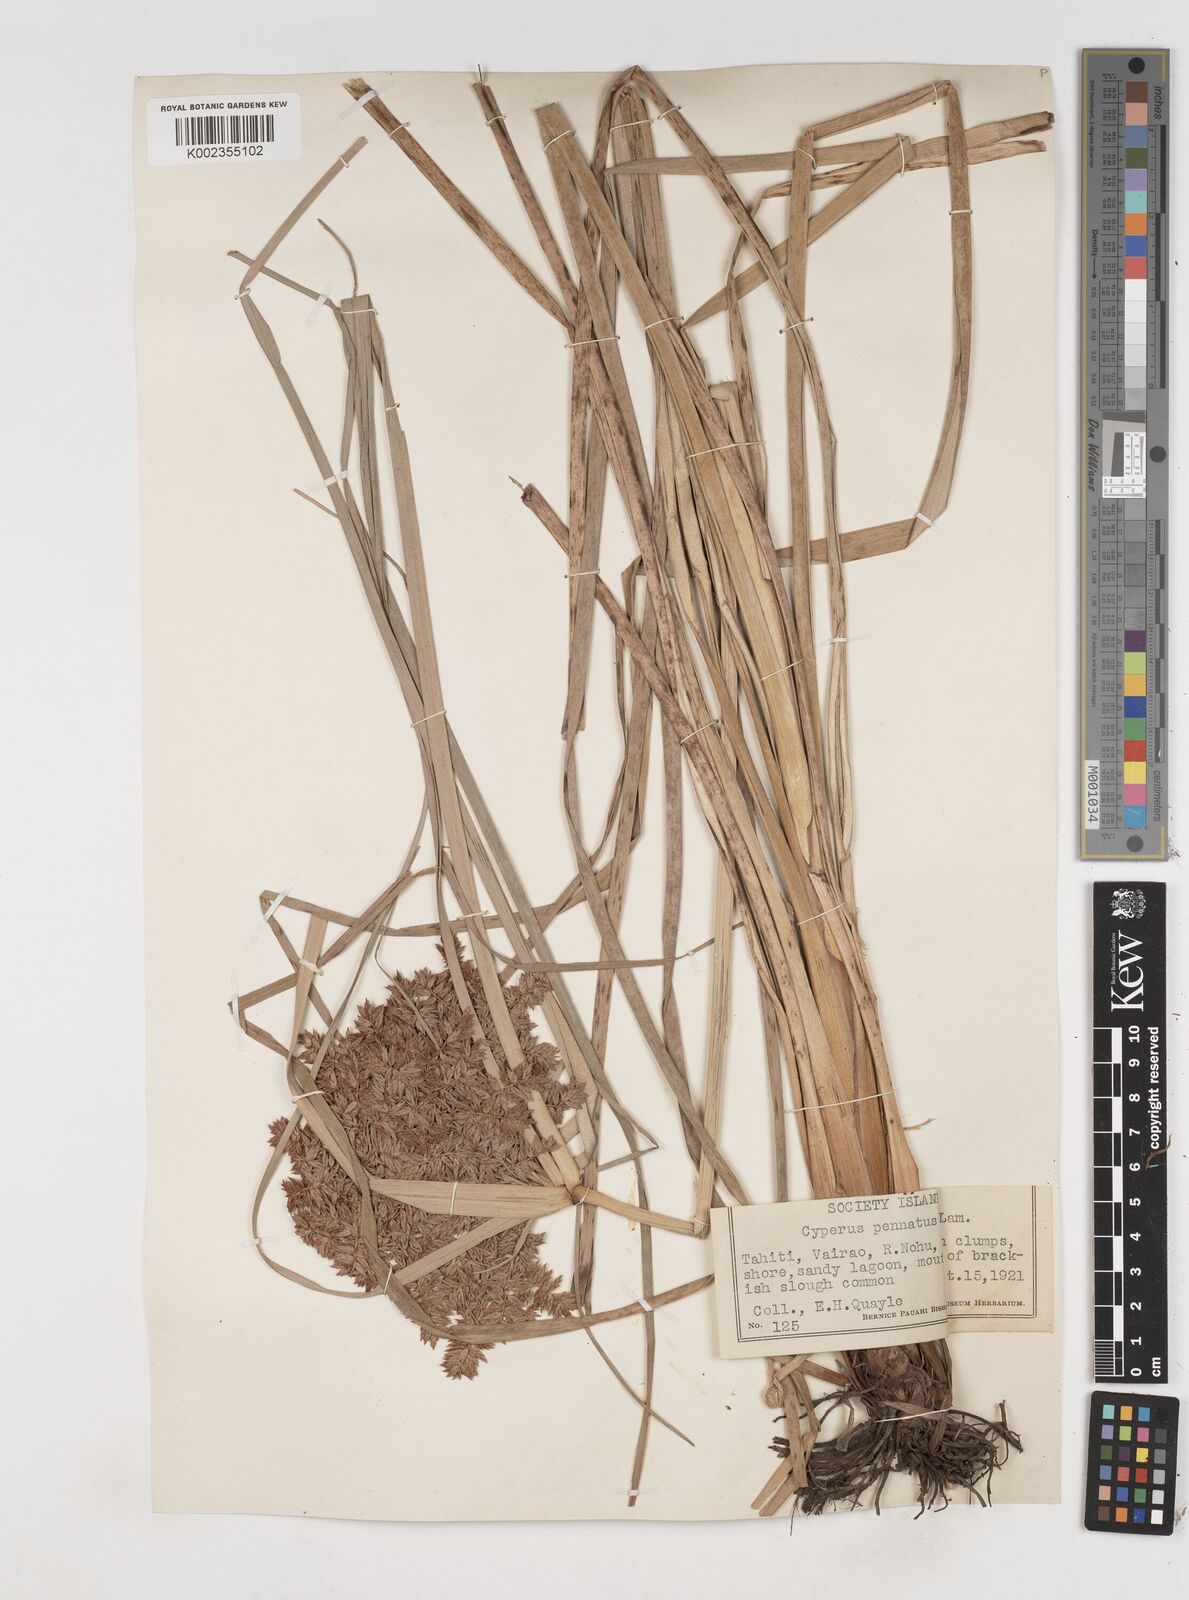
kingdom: Plantae
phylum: Tracheophyta
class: Liliopsida
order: Poales
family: Cyperaceae
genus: Cyperus
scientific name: Cyperus javanicus
